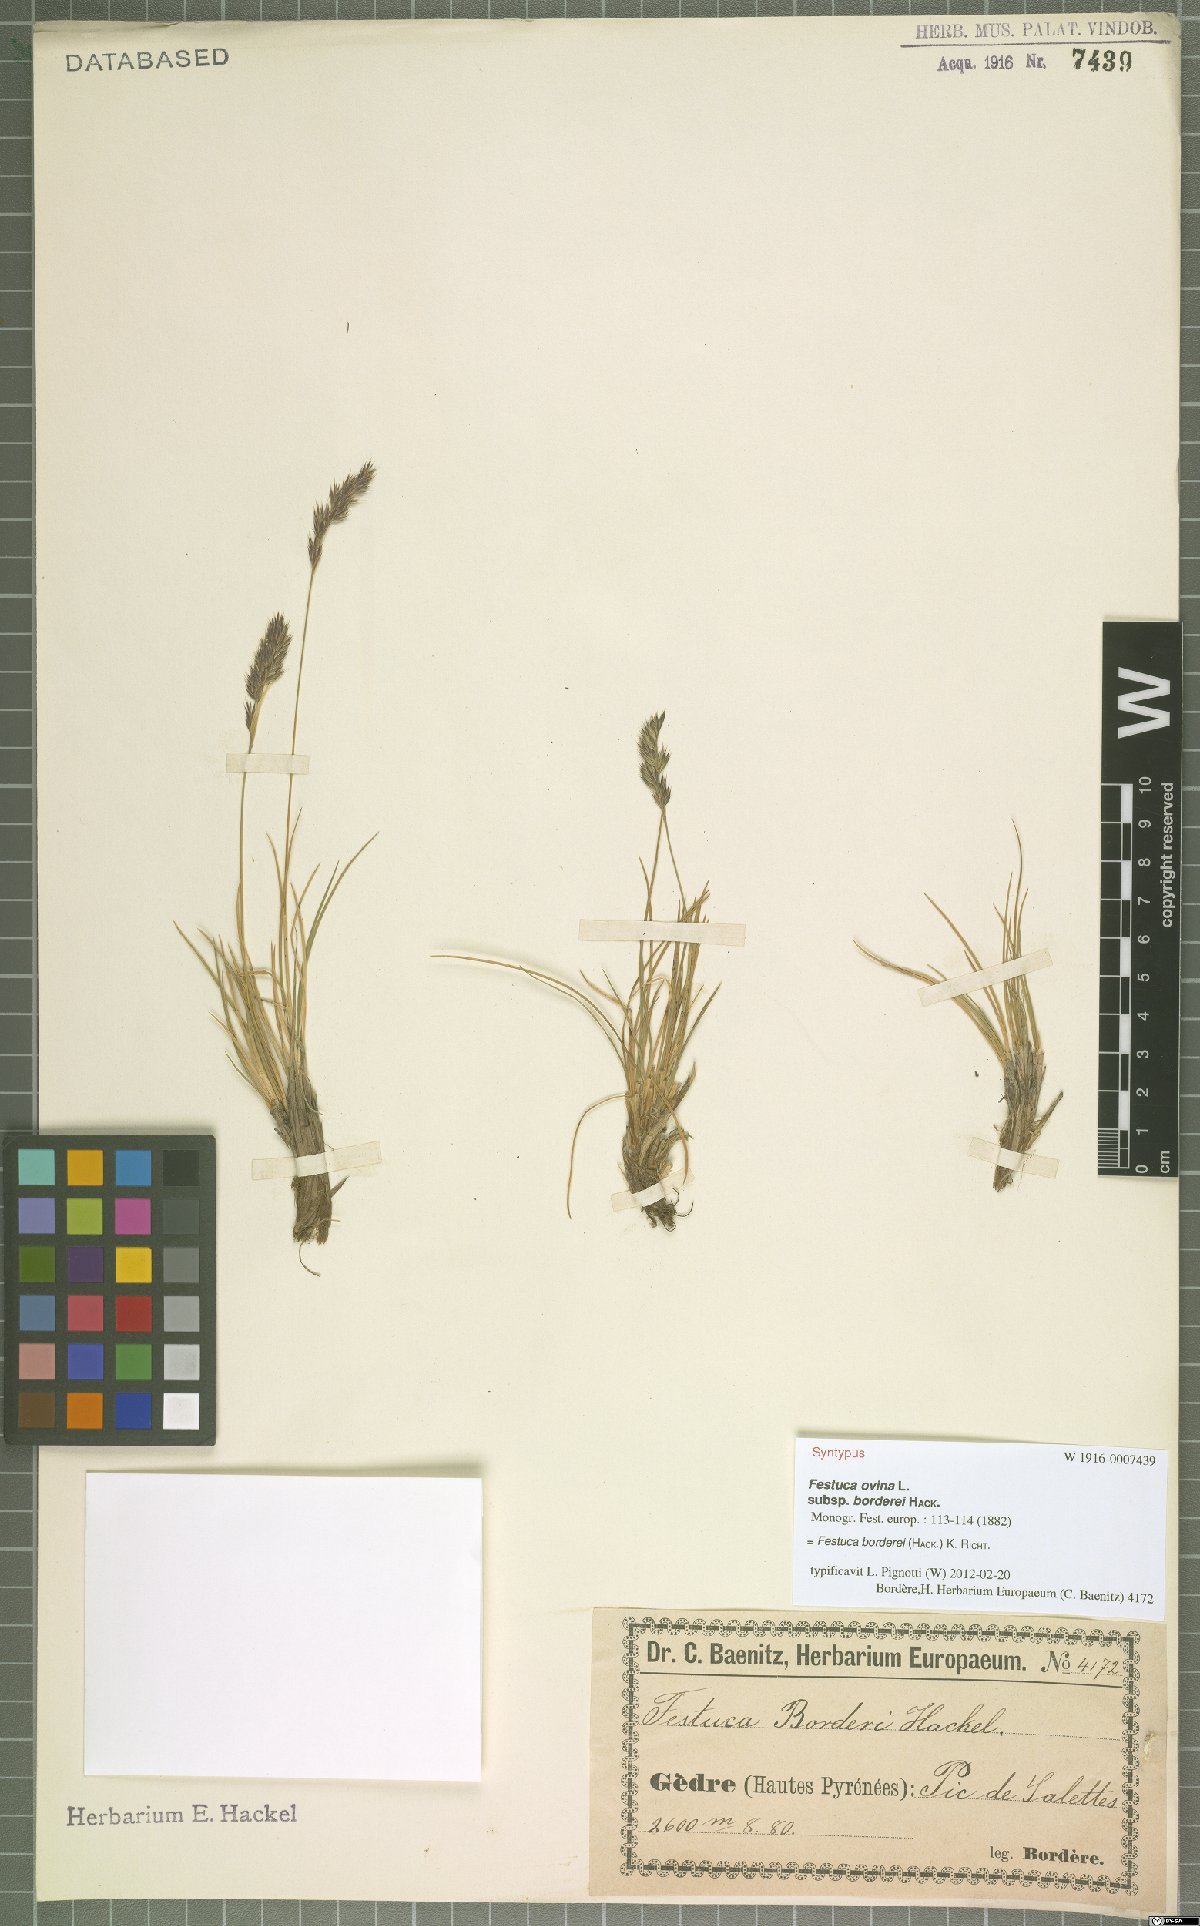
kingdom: Plantae
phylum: Tracheophyta
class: Liliopsida
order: Poales
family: Poaceae
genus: Festuca
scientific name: Festuca borderii
